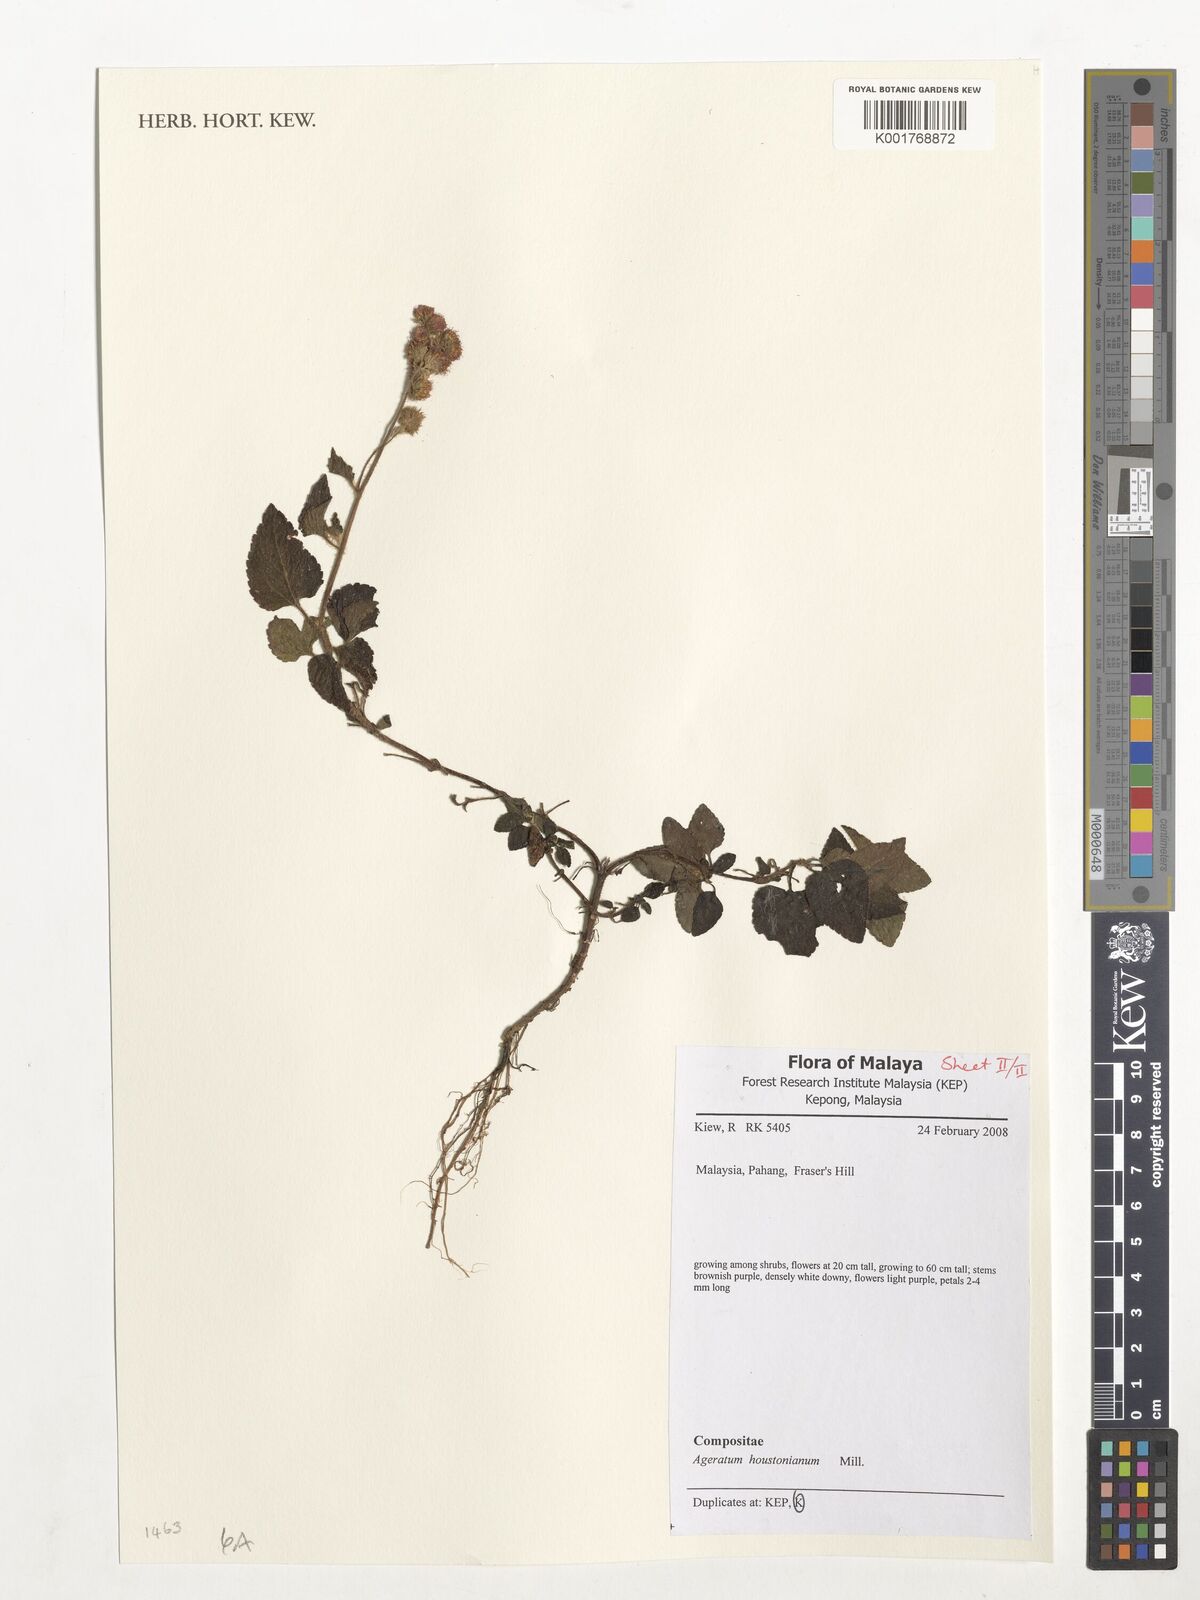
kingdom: Plantae
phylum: Tracheophyta
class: Magnoliopsida
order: Asterales
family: Asteraceae
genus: Ageratum
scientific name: Ageratum houstonianum
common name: Bluemink
